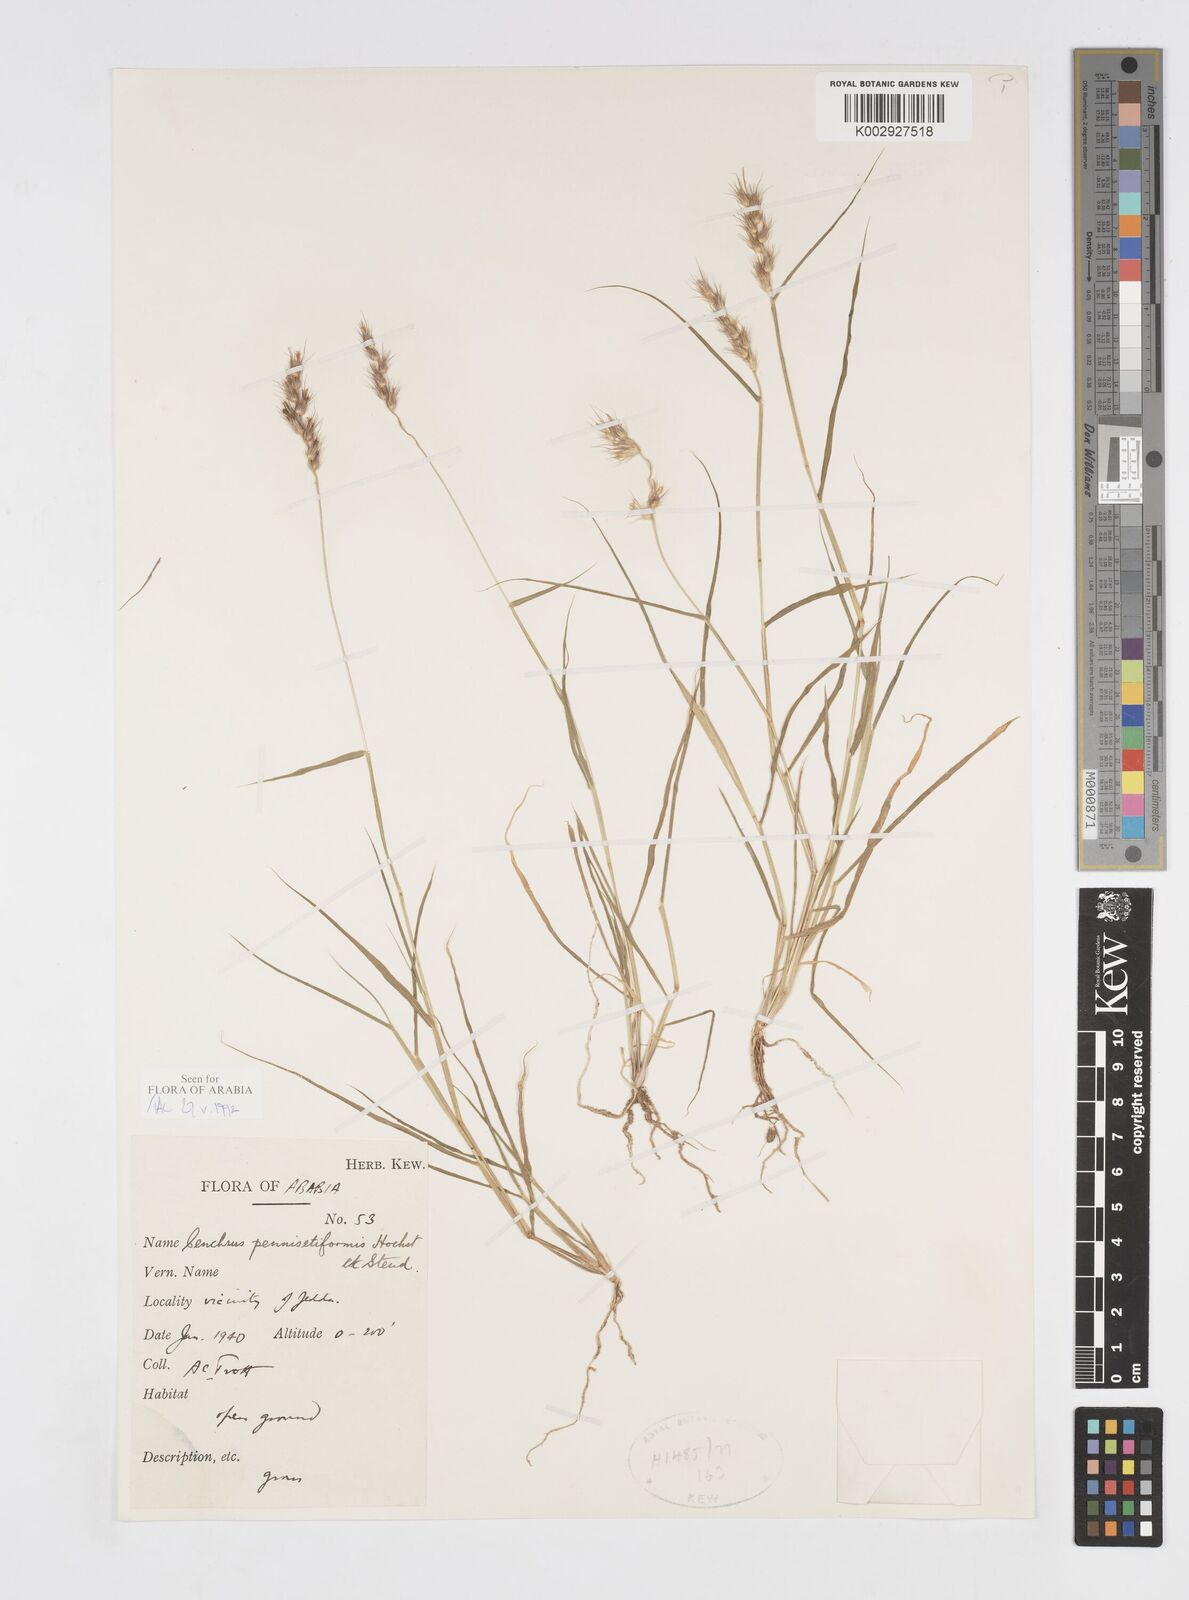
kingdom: Plantae
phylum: Tracheophyta
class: Liliopsida
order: Poales
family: Poaceae
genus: Cenchrus
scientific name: Cenchrus pennisetiformis
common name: Cloncurry
